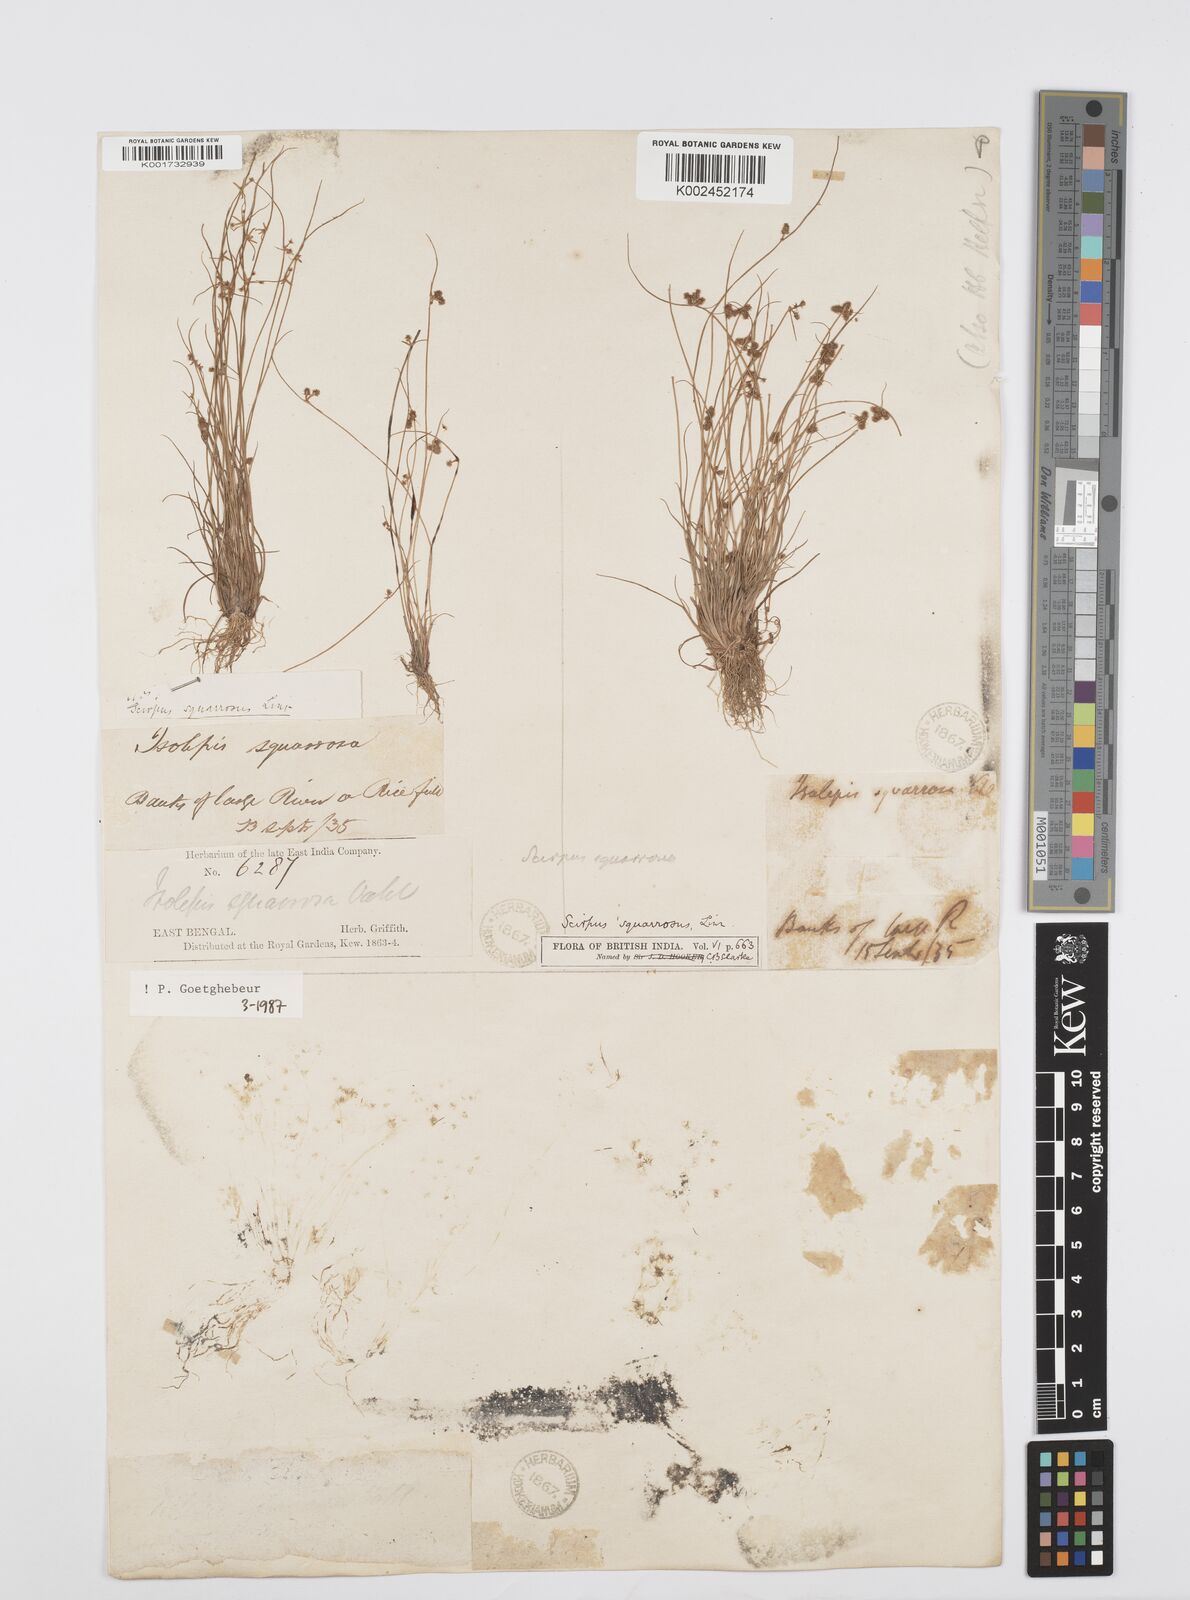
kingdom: Plantae
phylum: Tracheophyta
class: Liliopsida
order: Poales
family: Cyperaceae
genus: Cyperus
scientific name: Cyperus squarrosus
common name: Awned cyperus
